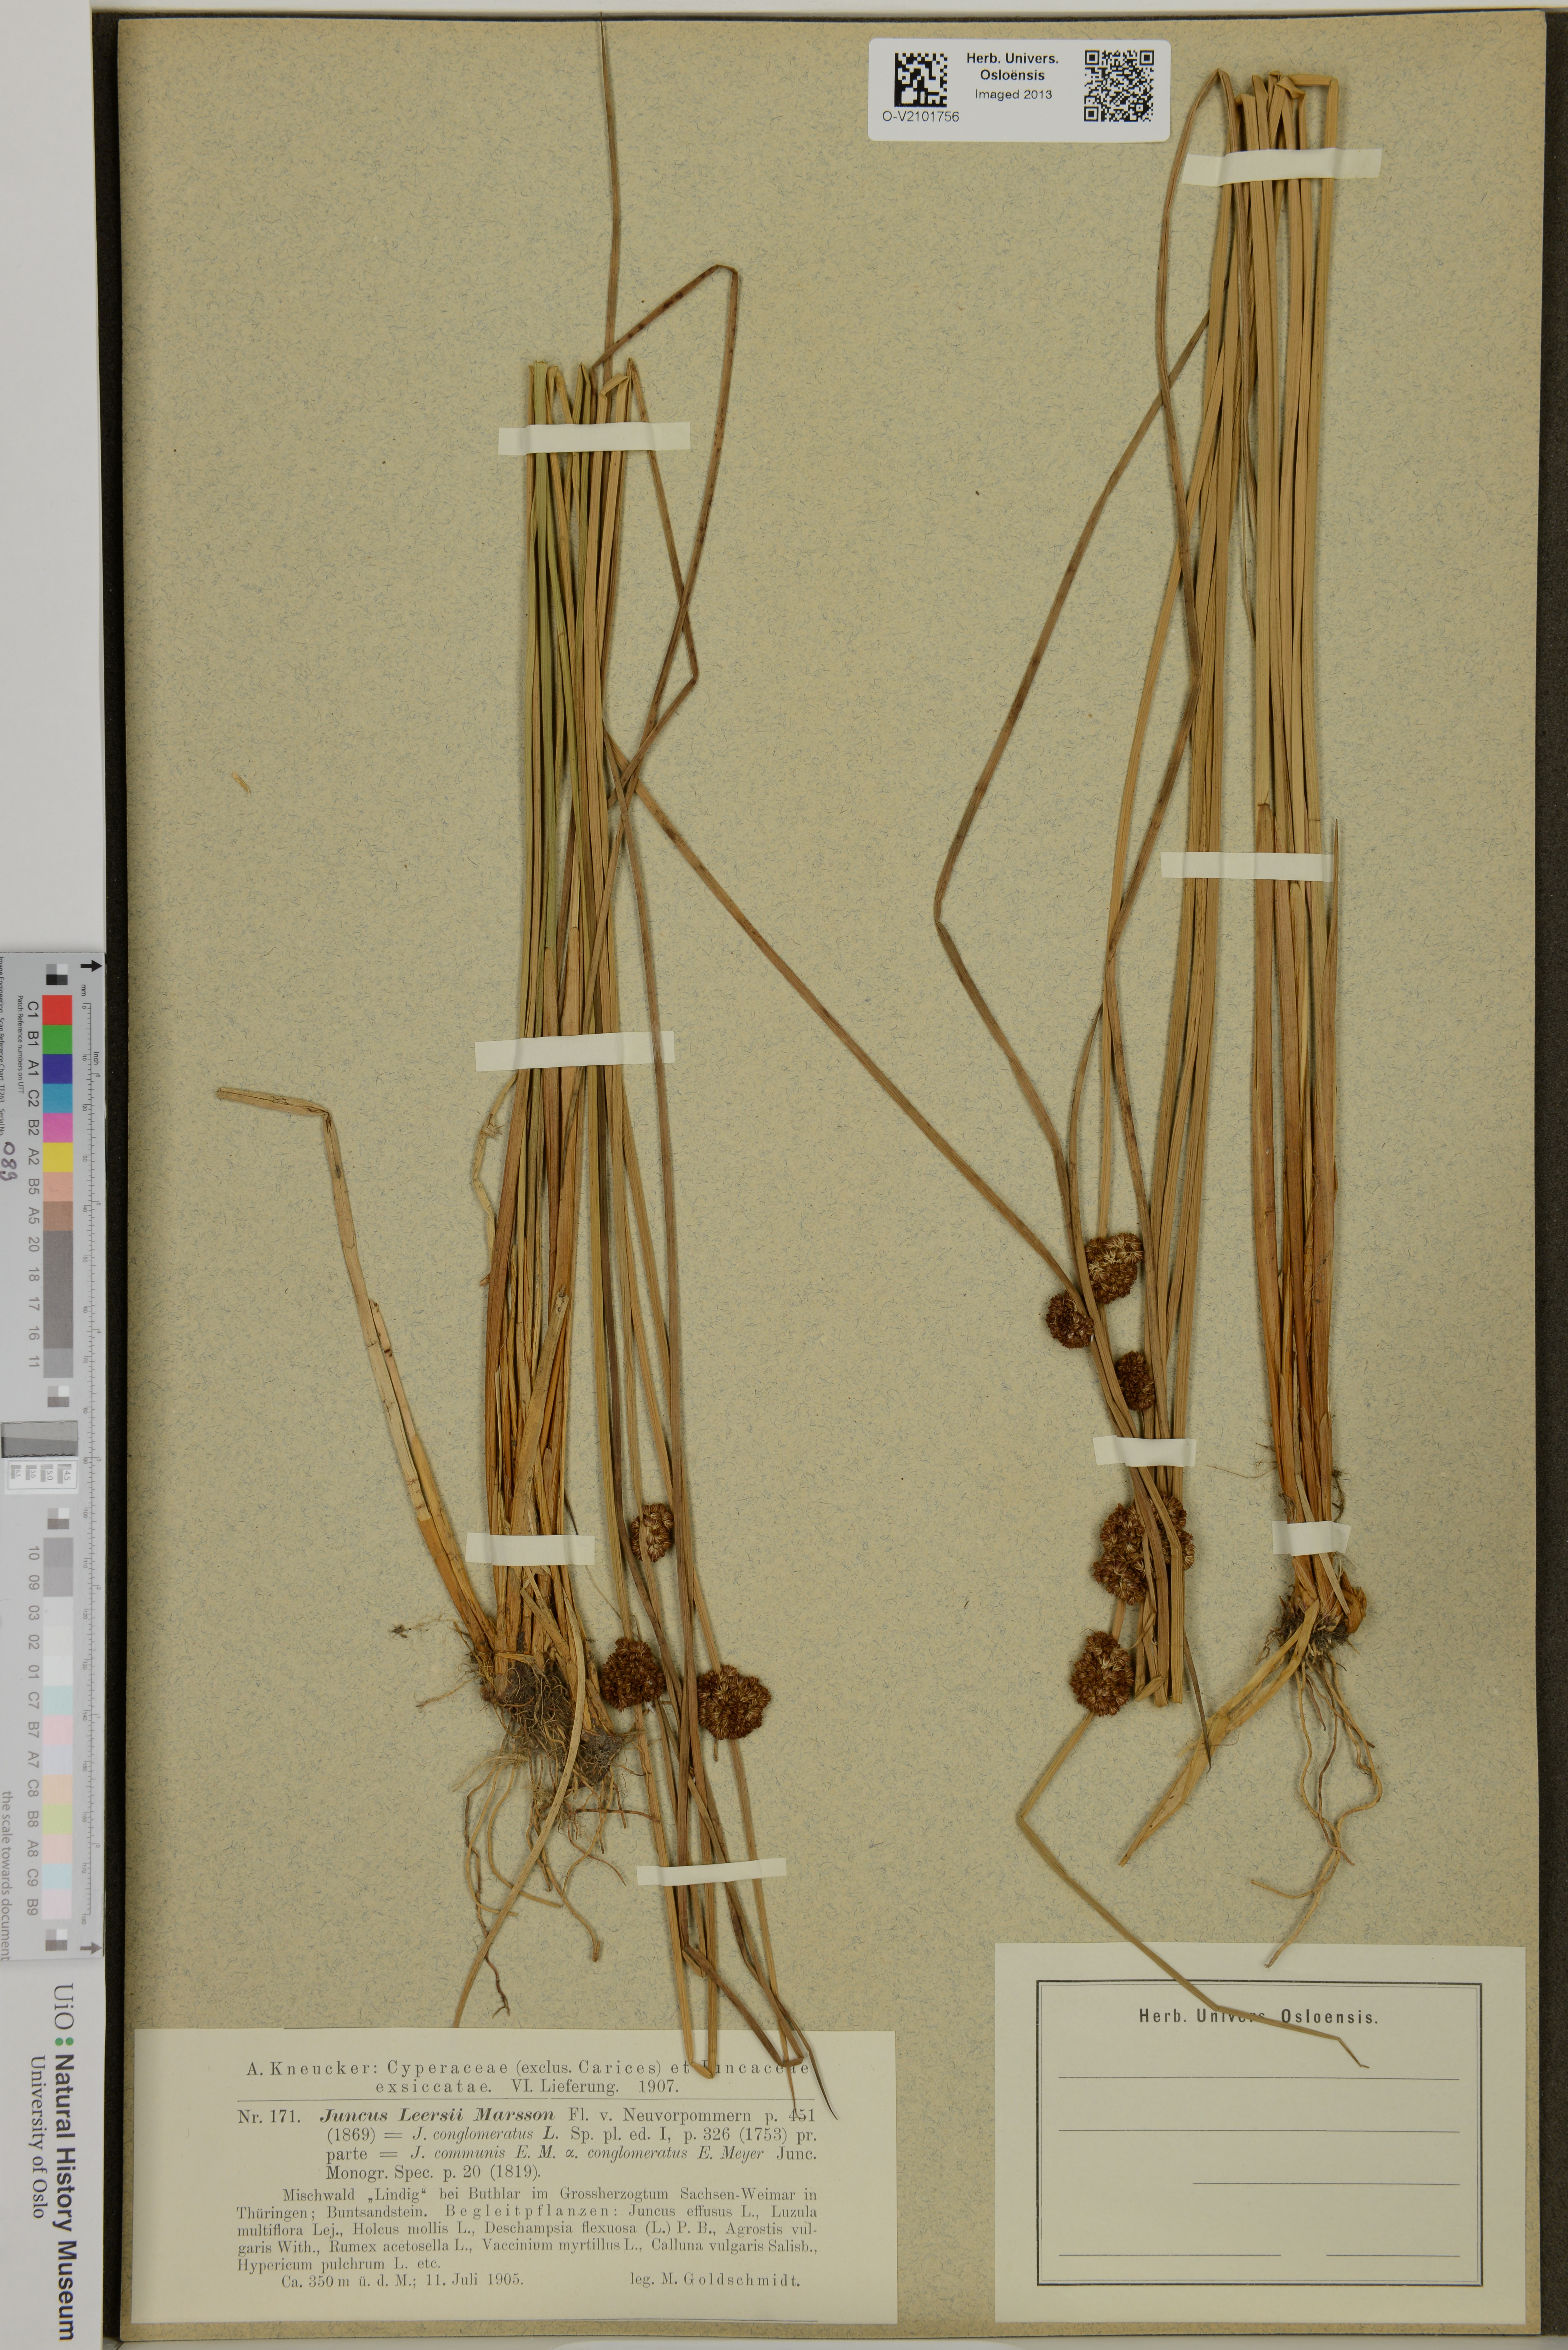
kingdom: Plantae
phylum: Tracheophyta
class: Liliopsida
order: Poales
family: Juncaceae
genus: Juncus
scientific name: Juncus conglomeratus
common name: Compact rush
